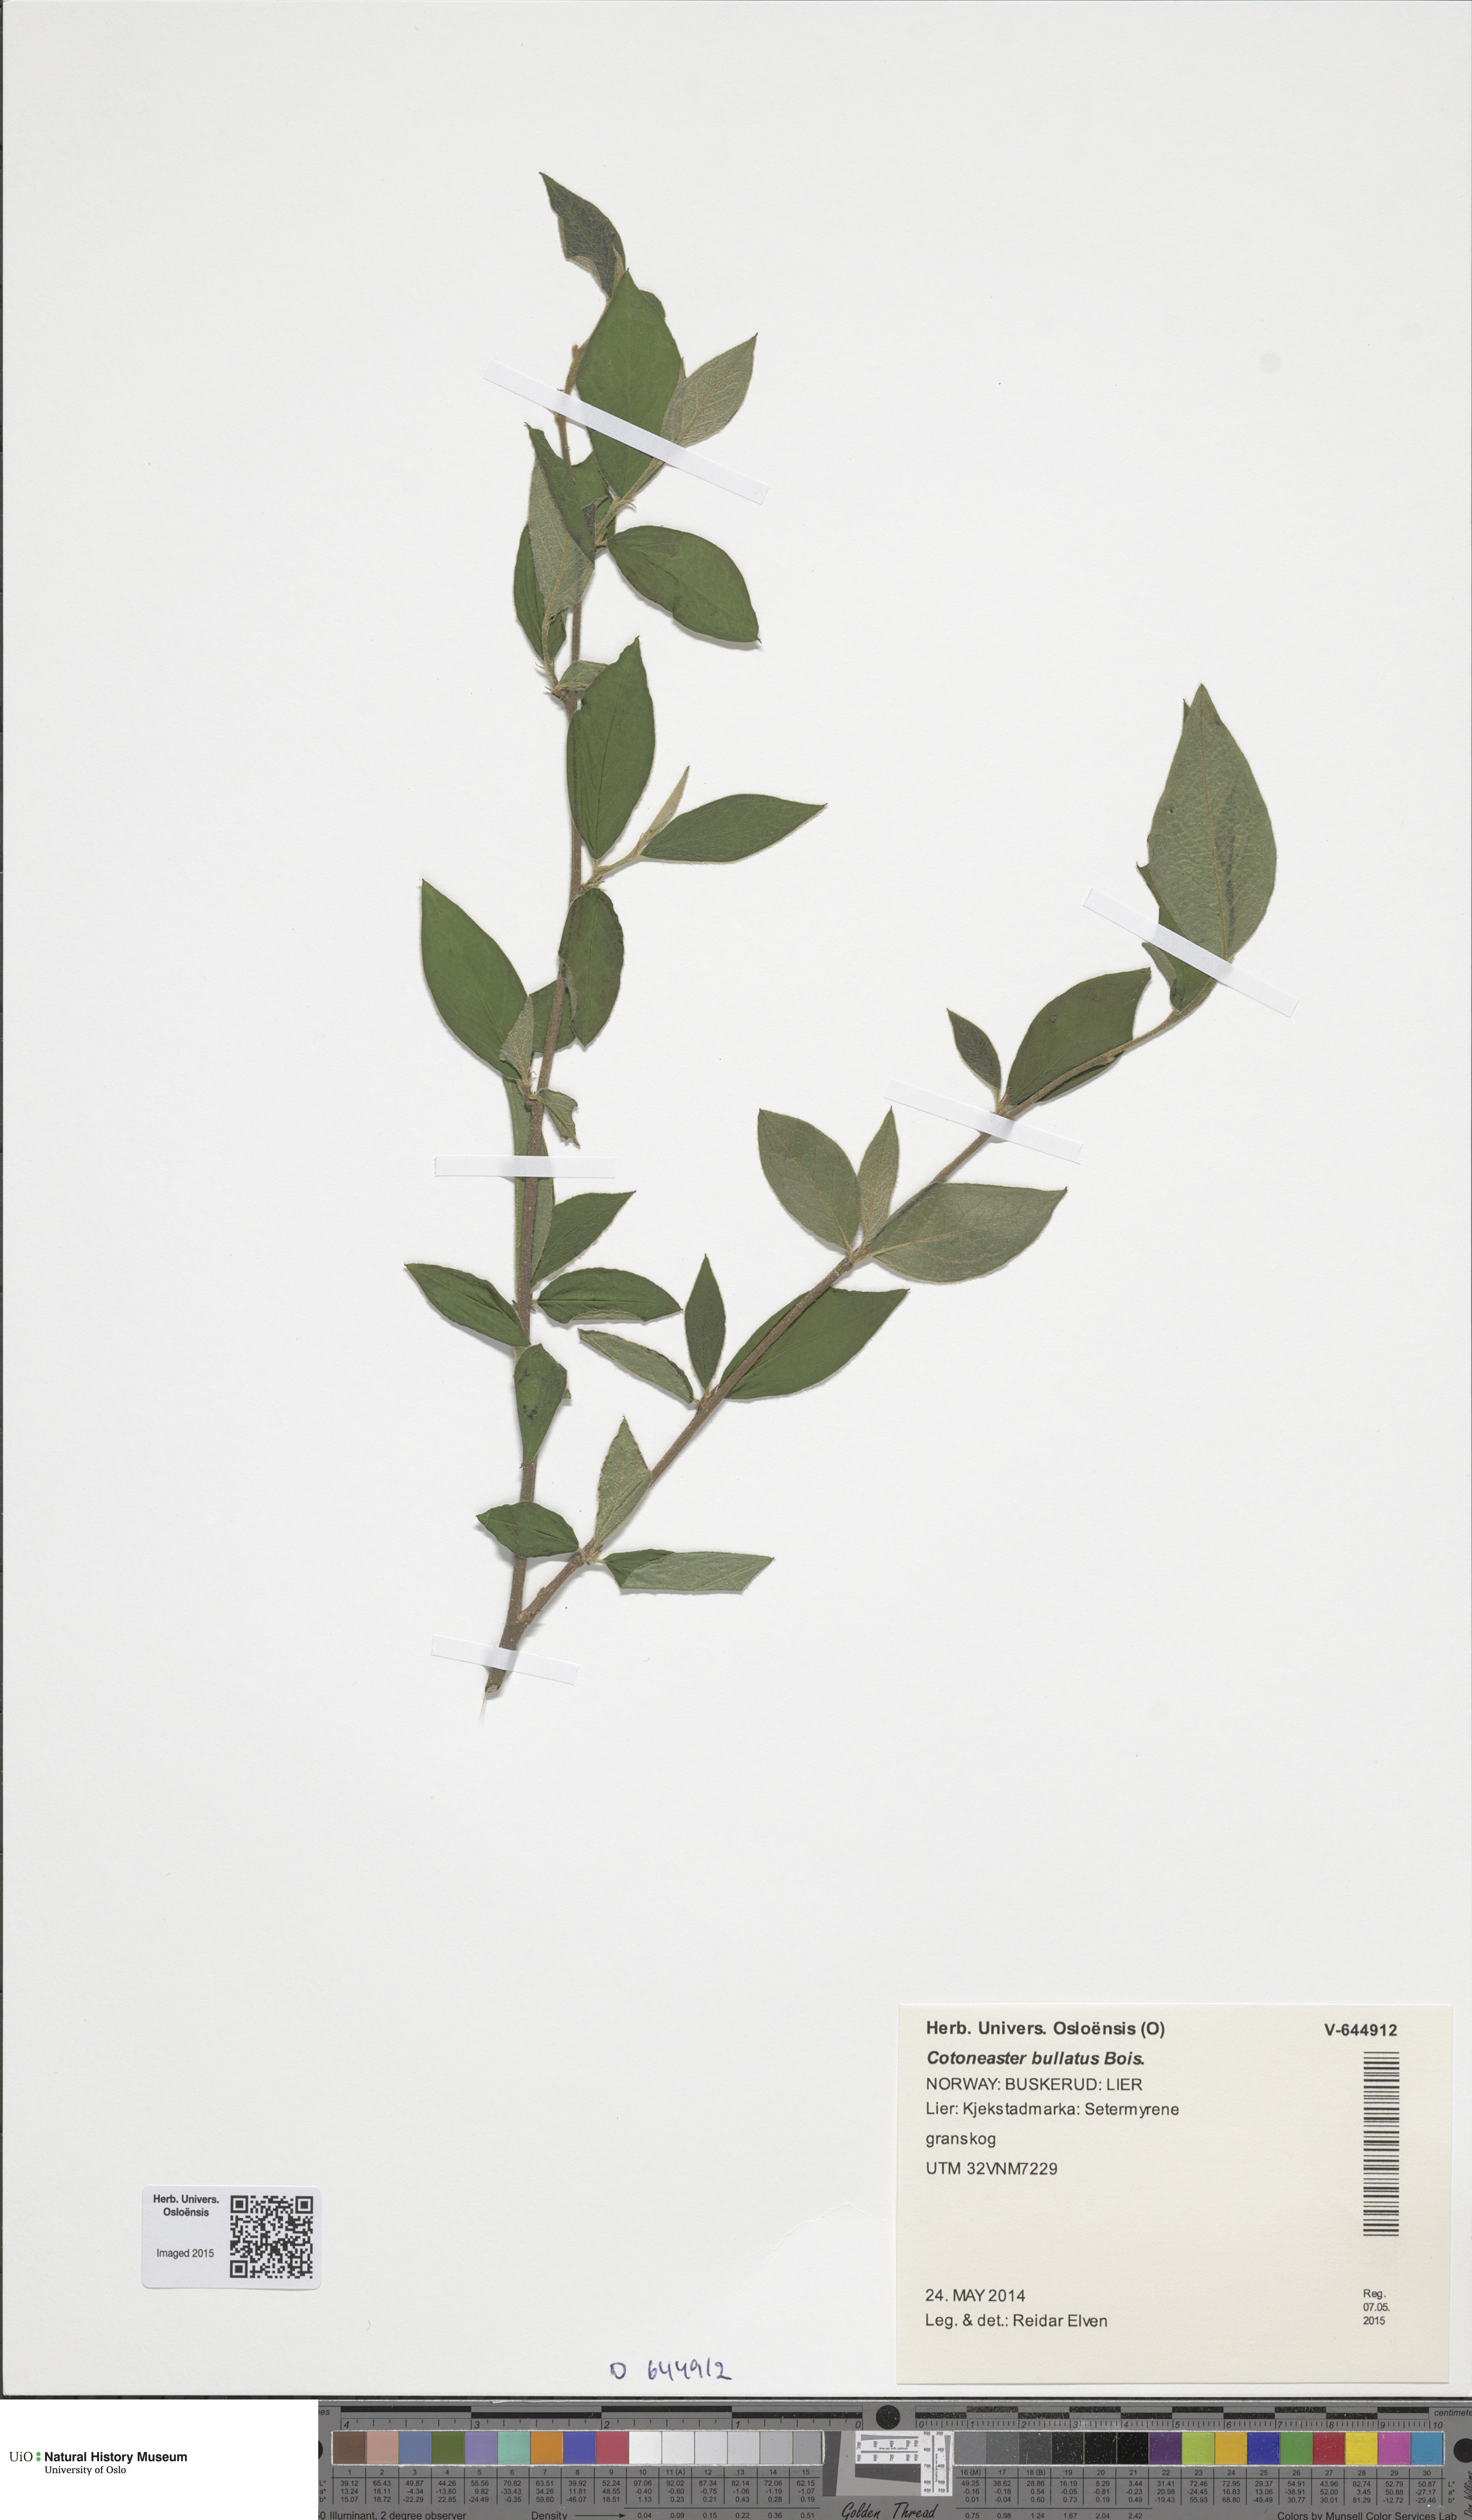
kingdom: Plantae
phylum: Tracheophyta
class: Magnoliopsida
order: Rosales
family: Rosaceae
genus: Cotoneaster
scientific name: Cotoneaster bullatus
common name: Hollyberry cotoneaster
